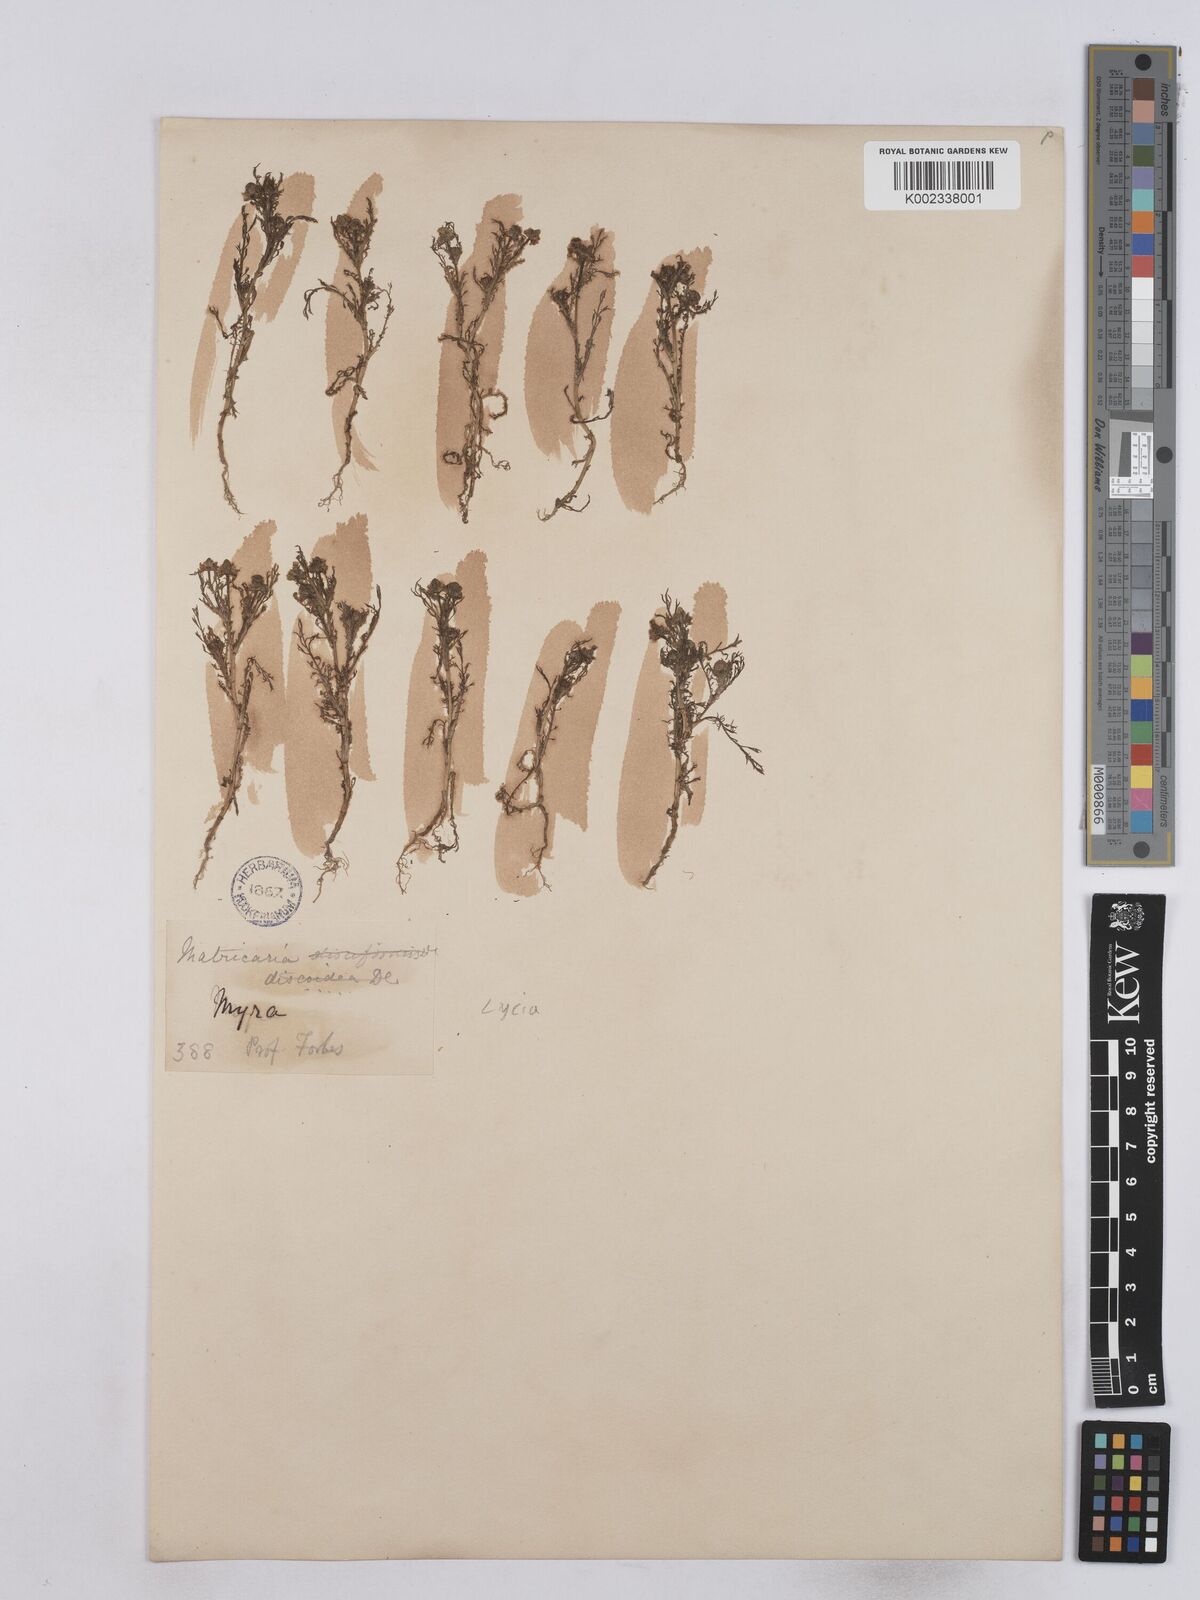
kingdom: Plantae
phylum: Tracheophyta
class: Magnoliopsida
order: Asterales
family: Asteraceae
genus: Matricaria
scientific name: Matricaria aurea
